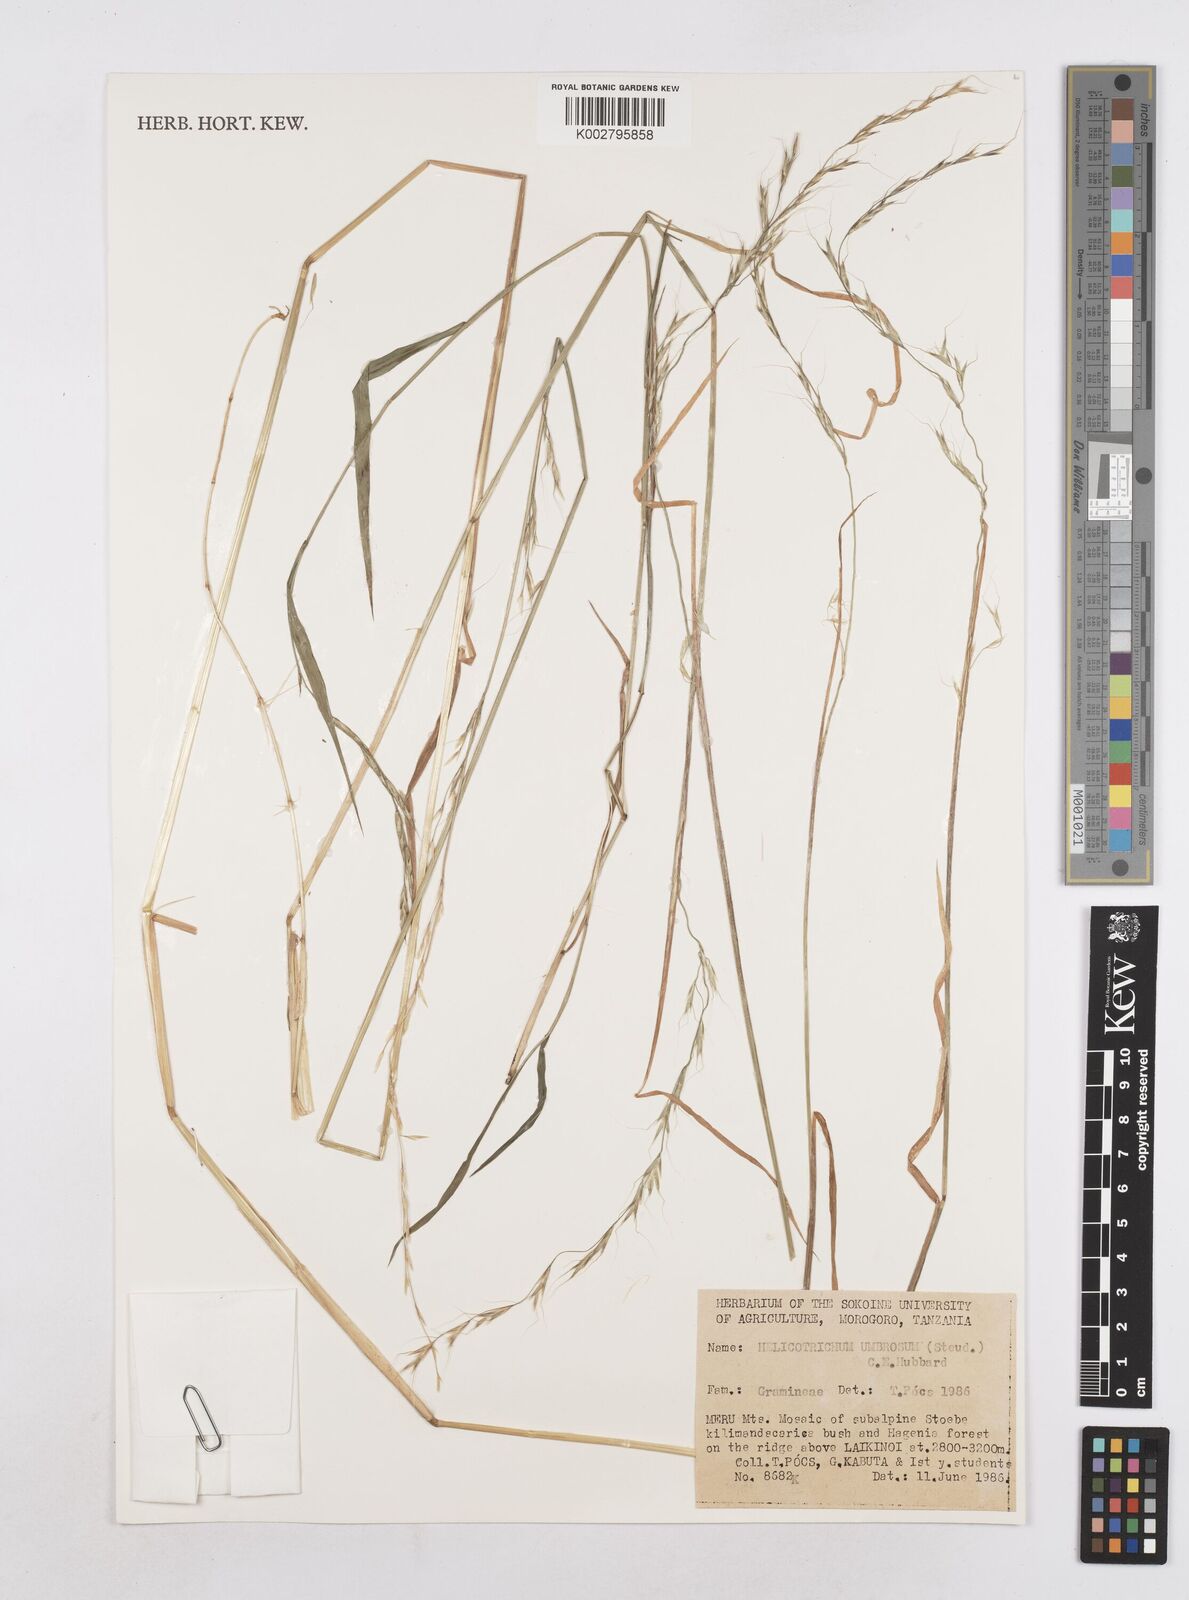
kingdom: Plantae
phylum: Tracheophyta
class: Liliopsida
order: Poales
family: Poaceae
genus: Trisetopsis
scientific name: Trisetopsis umbrosa
